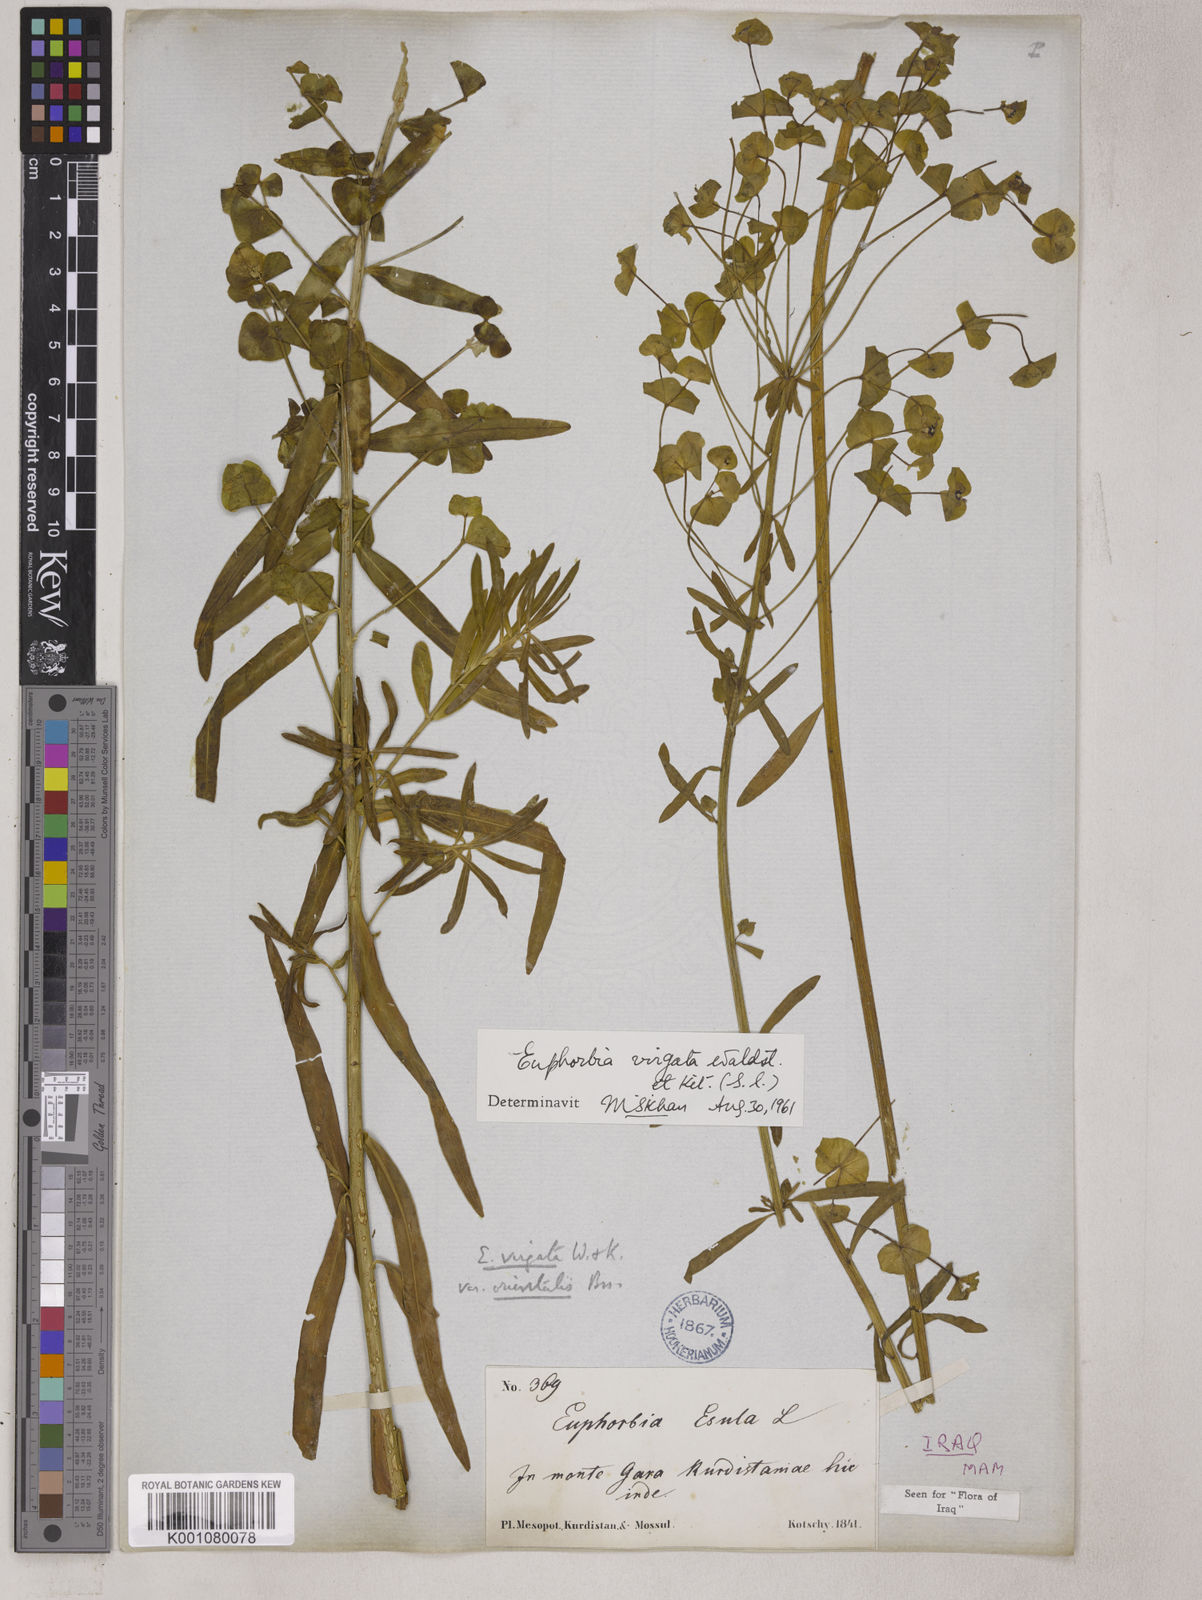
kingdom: Plantae
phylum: Tracheophyta
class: Magnoliopsida
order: Malpighiales
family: Euphorbiaceae
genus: Euphorbia
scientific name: Euphorbia virgata
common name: Leafy spurge
